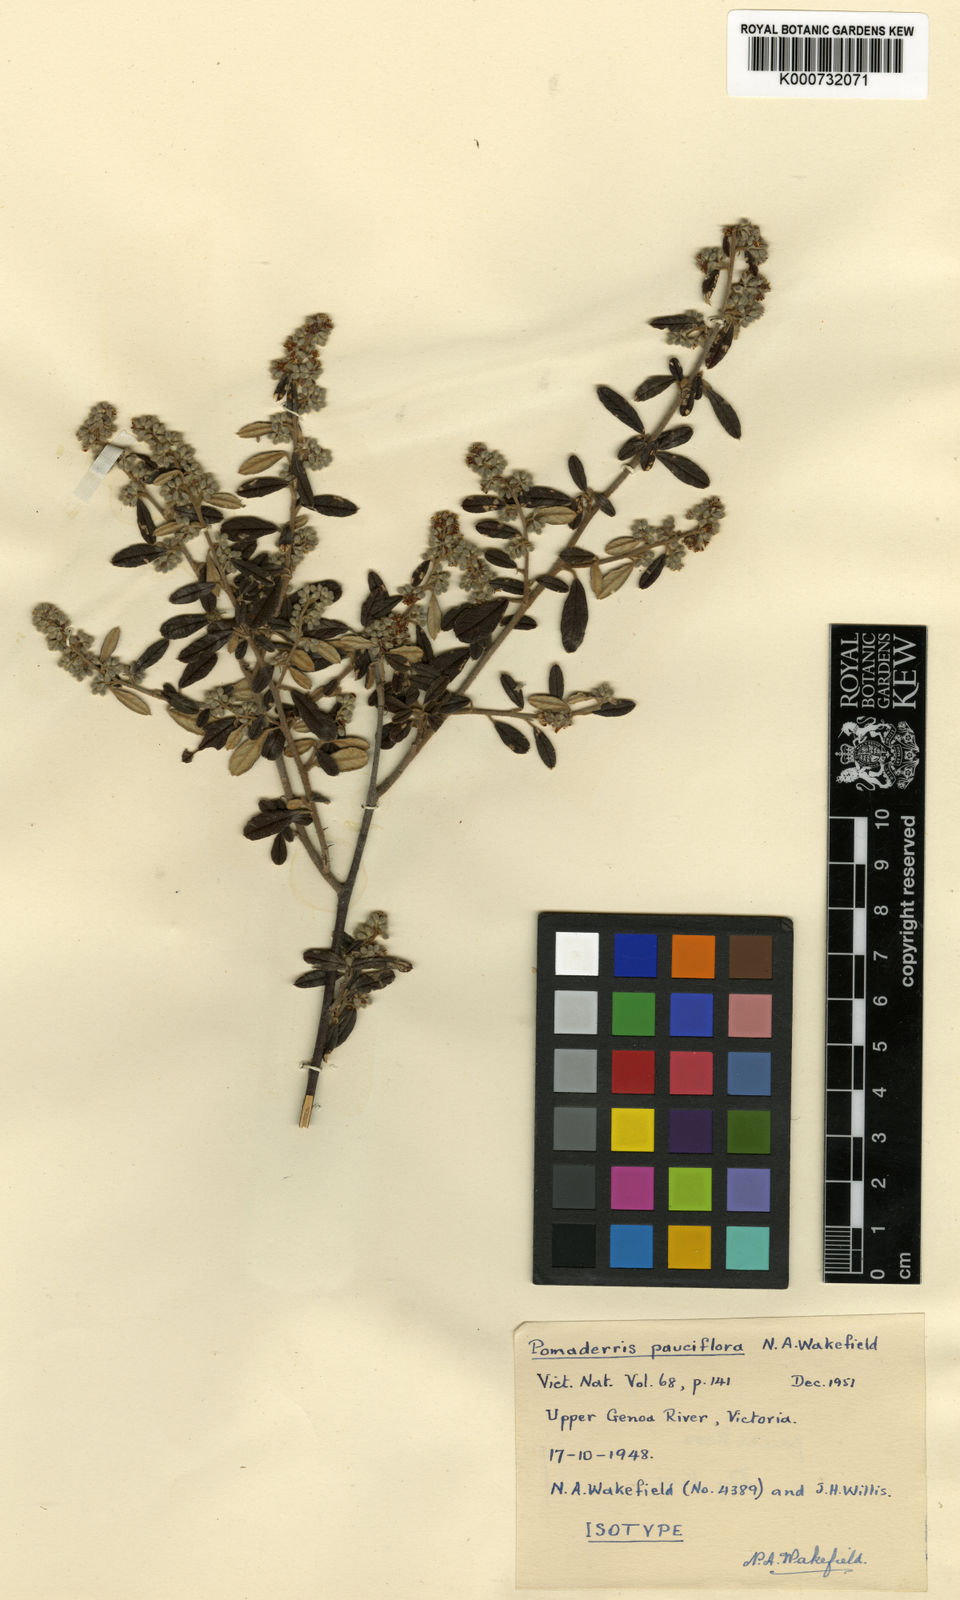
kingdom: Plantae
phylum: Tracheophyta
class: Magnoliopsida
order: Rosales
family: Rhamnaceae
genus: Pomaderris
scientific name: Pomaderris pauciflora
